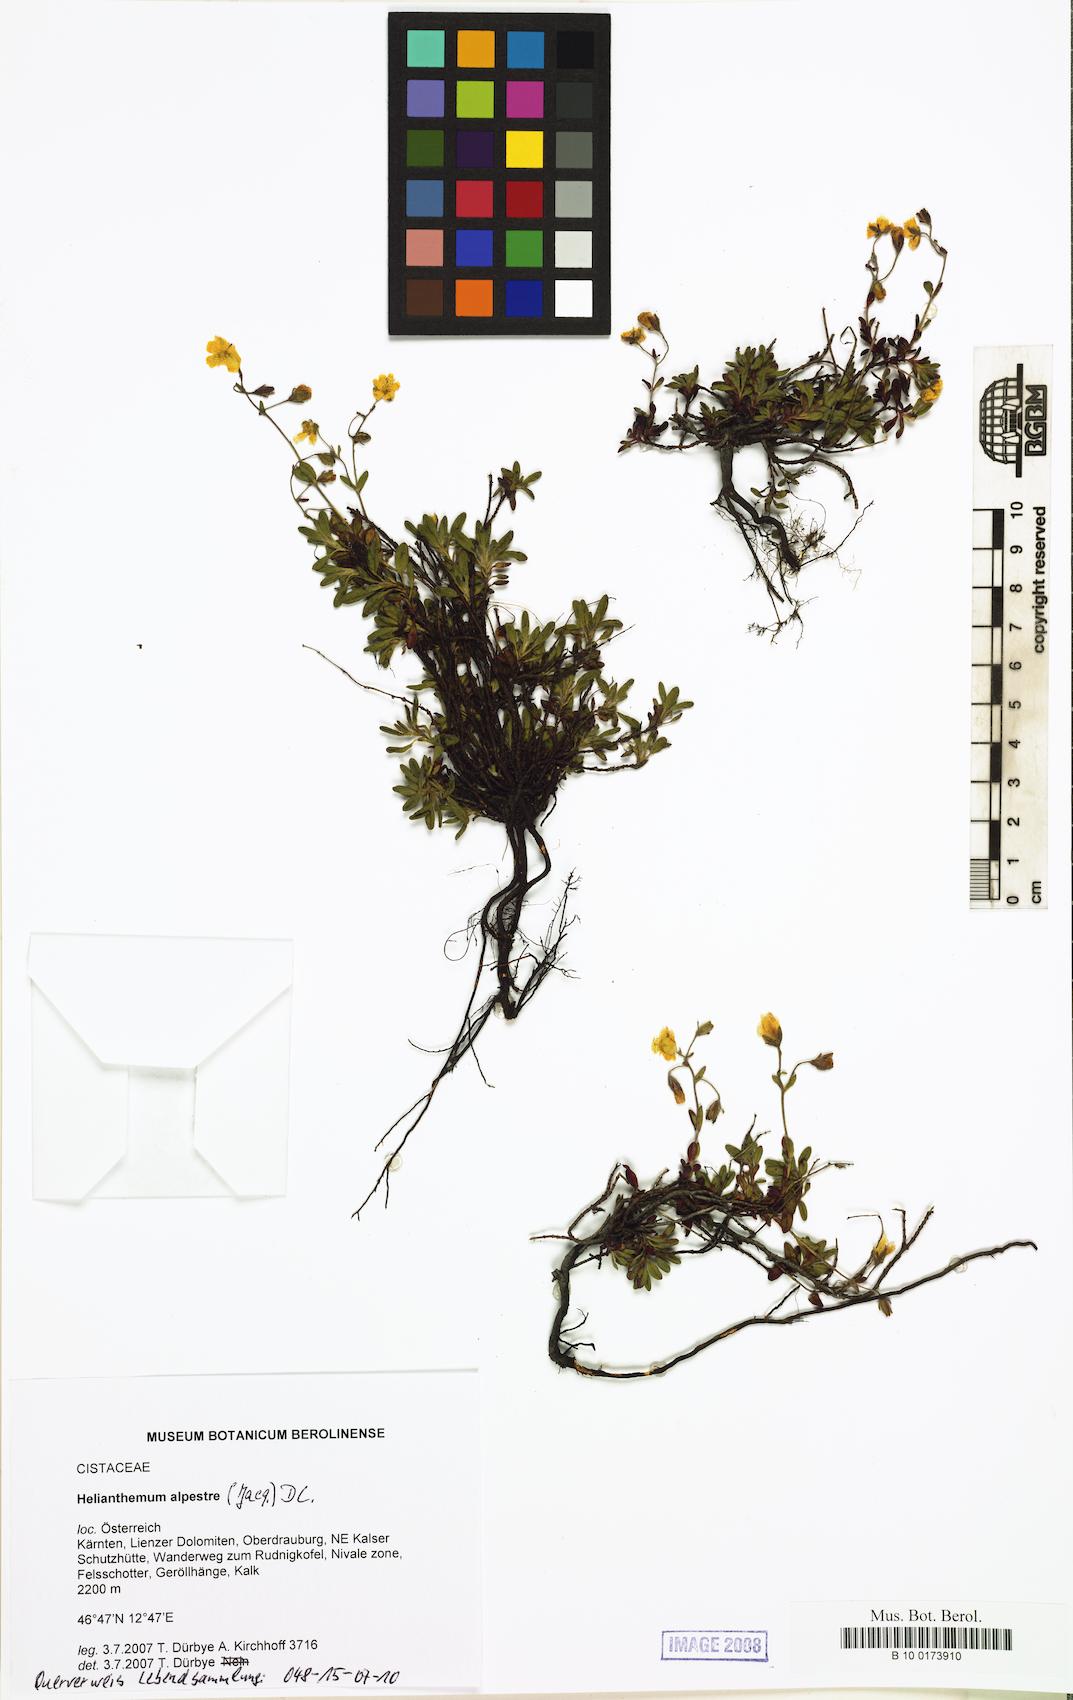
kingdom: Plantae
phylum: Tracheophyta
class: Magnoliopsida
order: Malvales
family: Cistaceae
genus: Helianthemum
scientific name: Helianthemum alpestre
